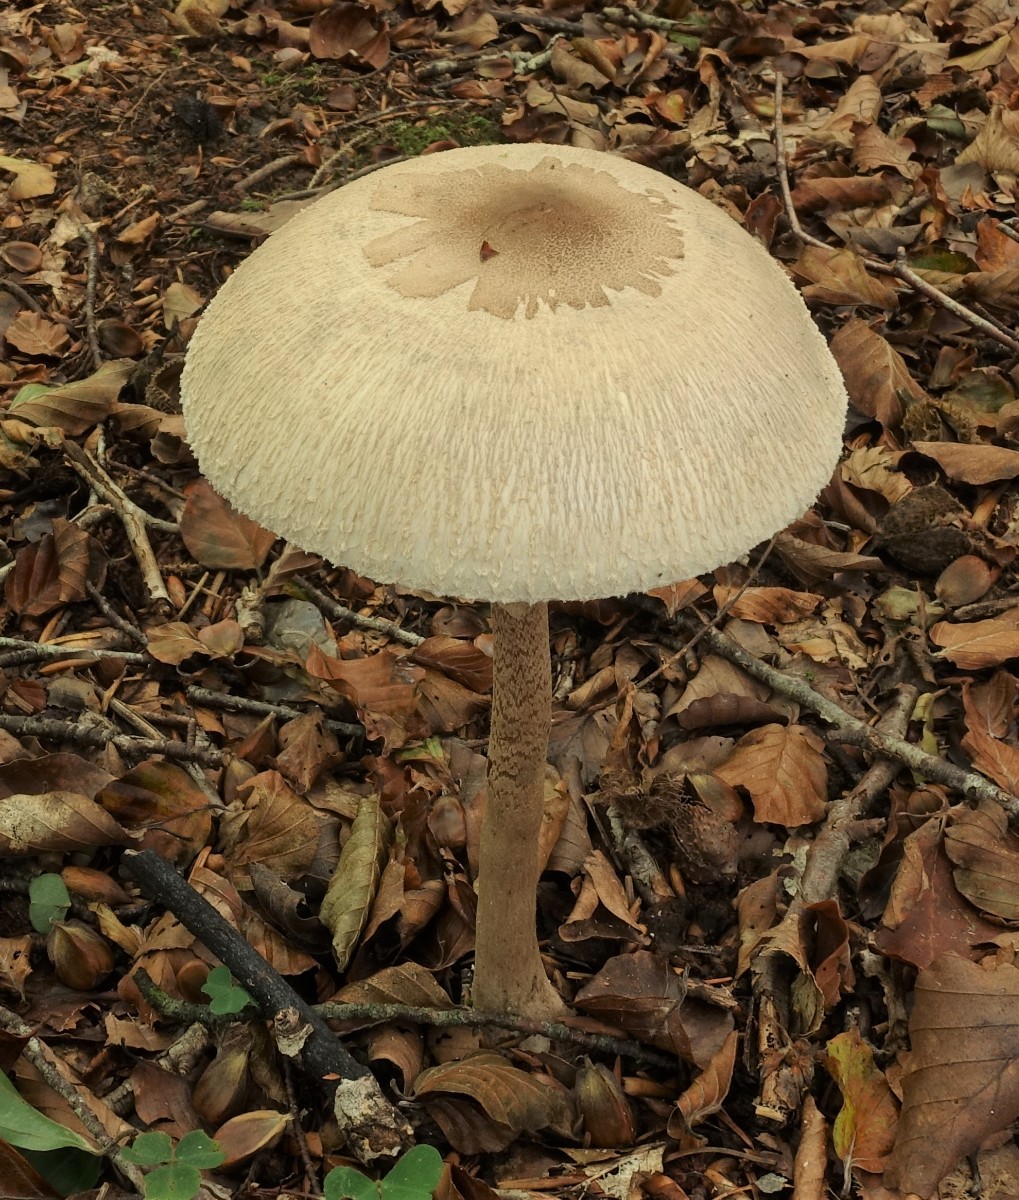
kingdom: Fungi
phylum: Basidiomycota
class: Agaricomycetes
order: Agaricales
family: Agaricaceae
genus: Macrolepiota
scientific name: Macrolepiota mastoidea
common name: puklet kæmpeparasolhat
